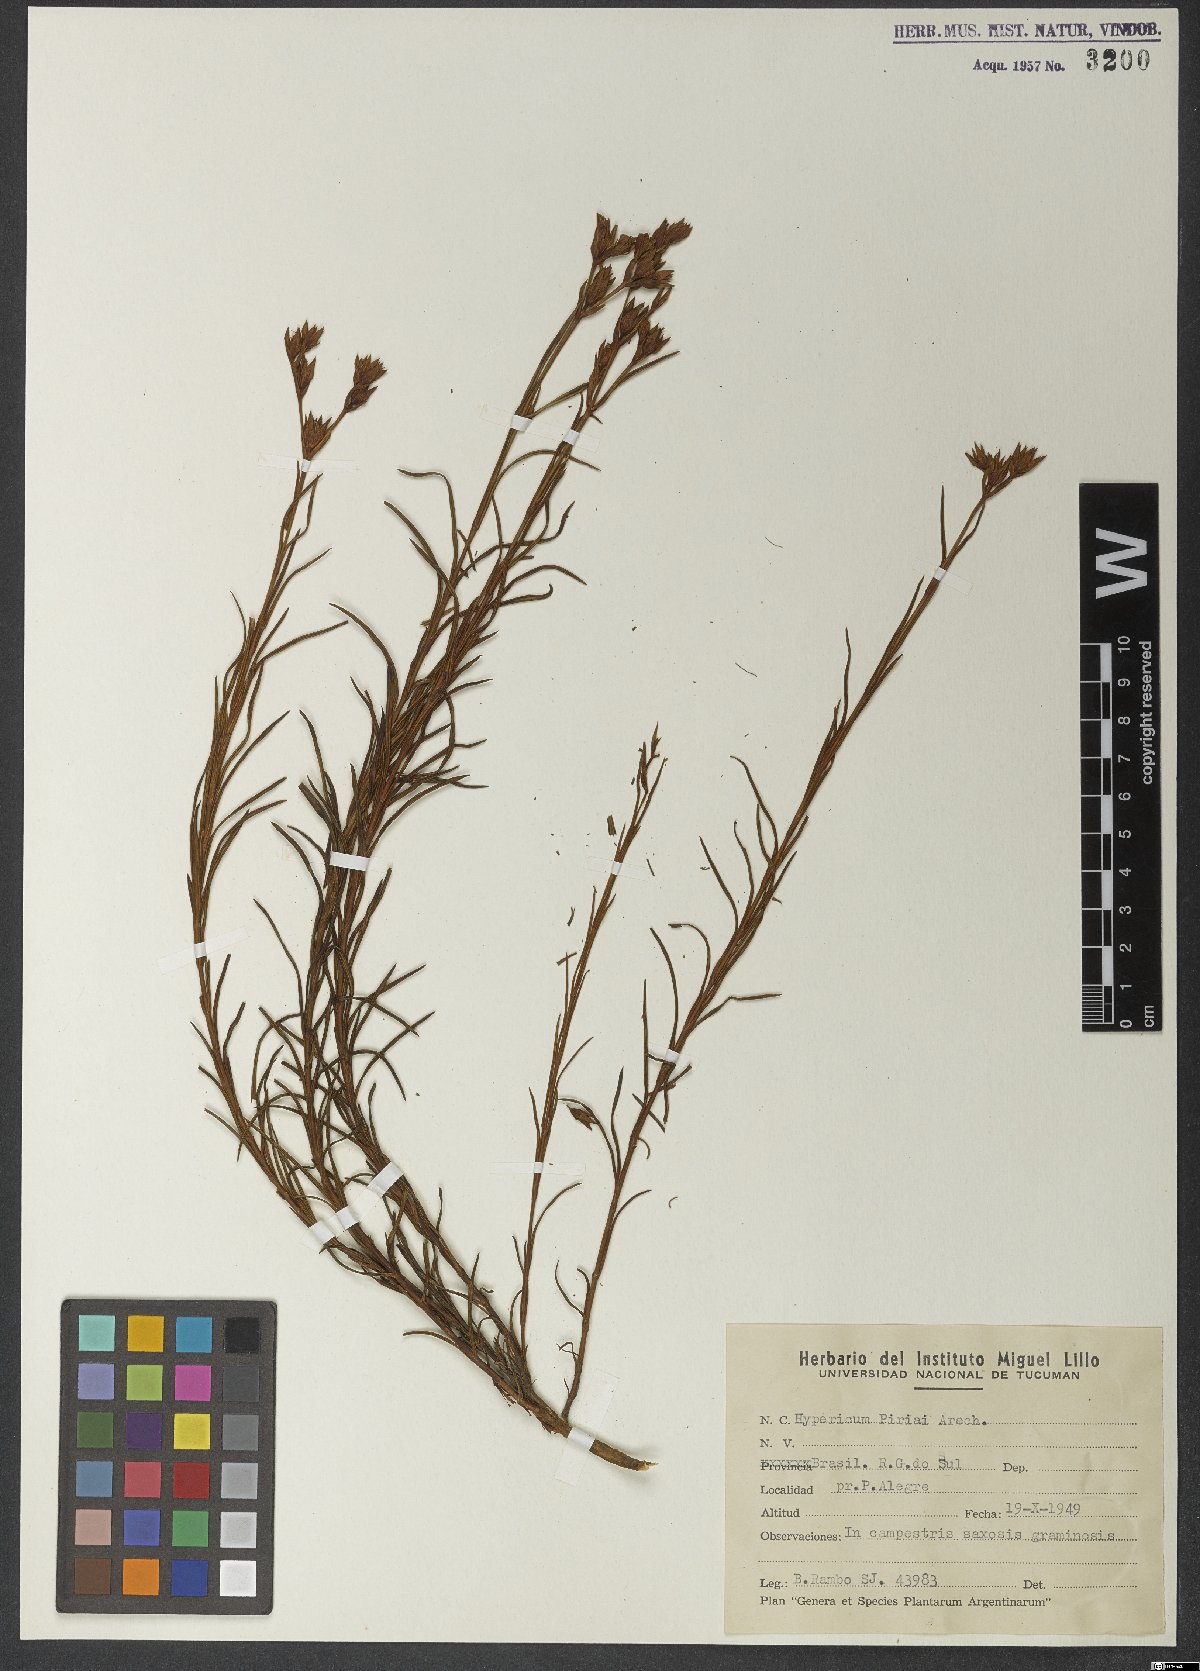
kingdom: Plantae
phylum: Tracheophyta
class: Magnoliopsida
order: Malpighiales
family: Hypericaceae
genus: Hypericum
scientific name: Hypericum piriai
